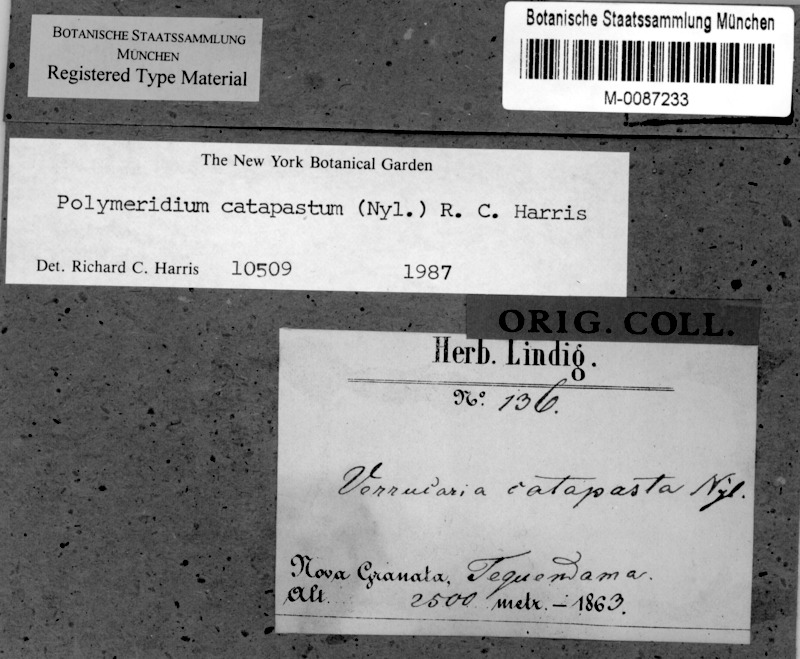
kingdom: Fungi
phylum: Ascomycota
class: Dothideomycetes
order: Trypetheliales
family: Trypetheliaceae
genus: Polymeridium
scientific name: Polymeridium catapastum
